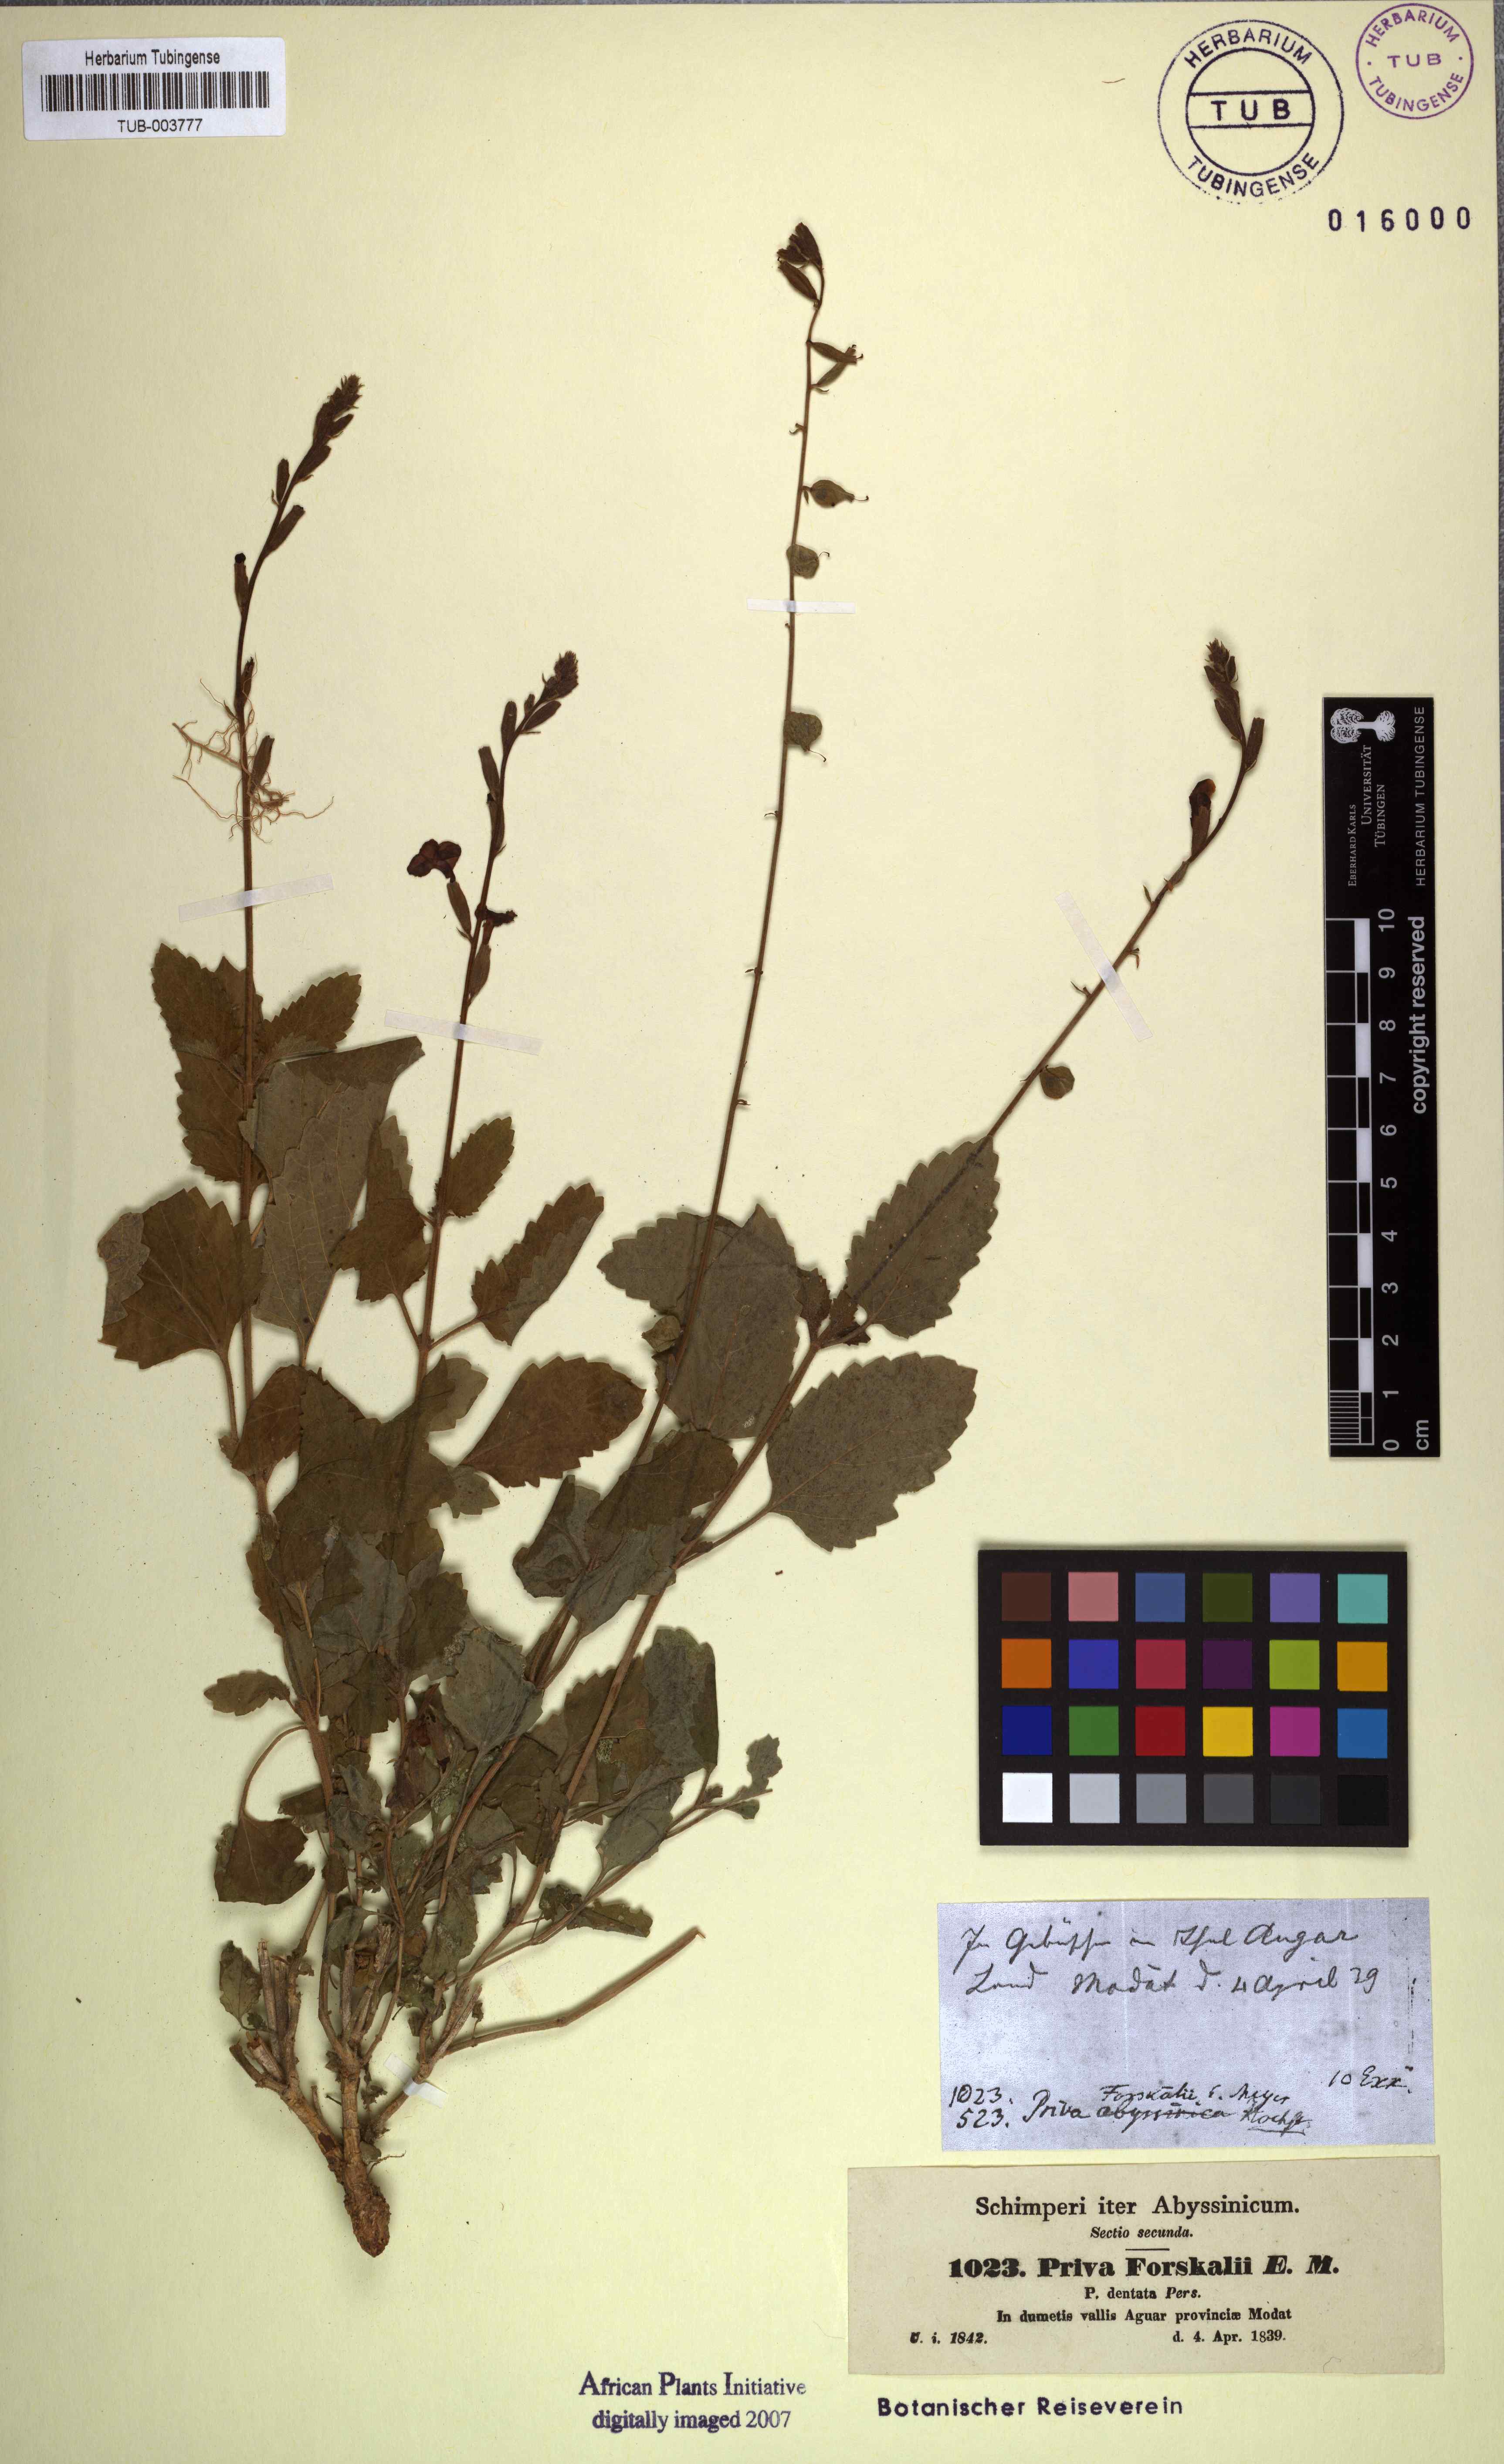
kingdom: Plantae
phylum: Tracheophyta
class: Magnoliopsida
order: Lamiales
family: Verbenaceae
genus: Priva
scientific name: Priva cordifolia
